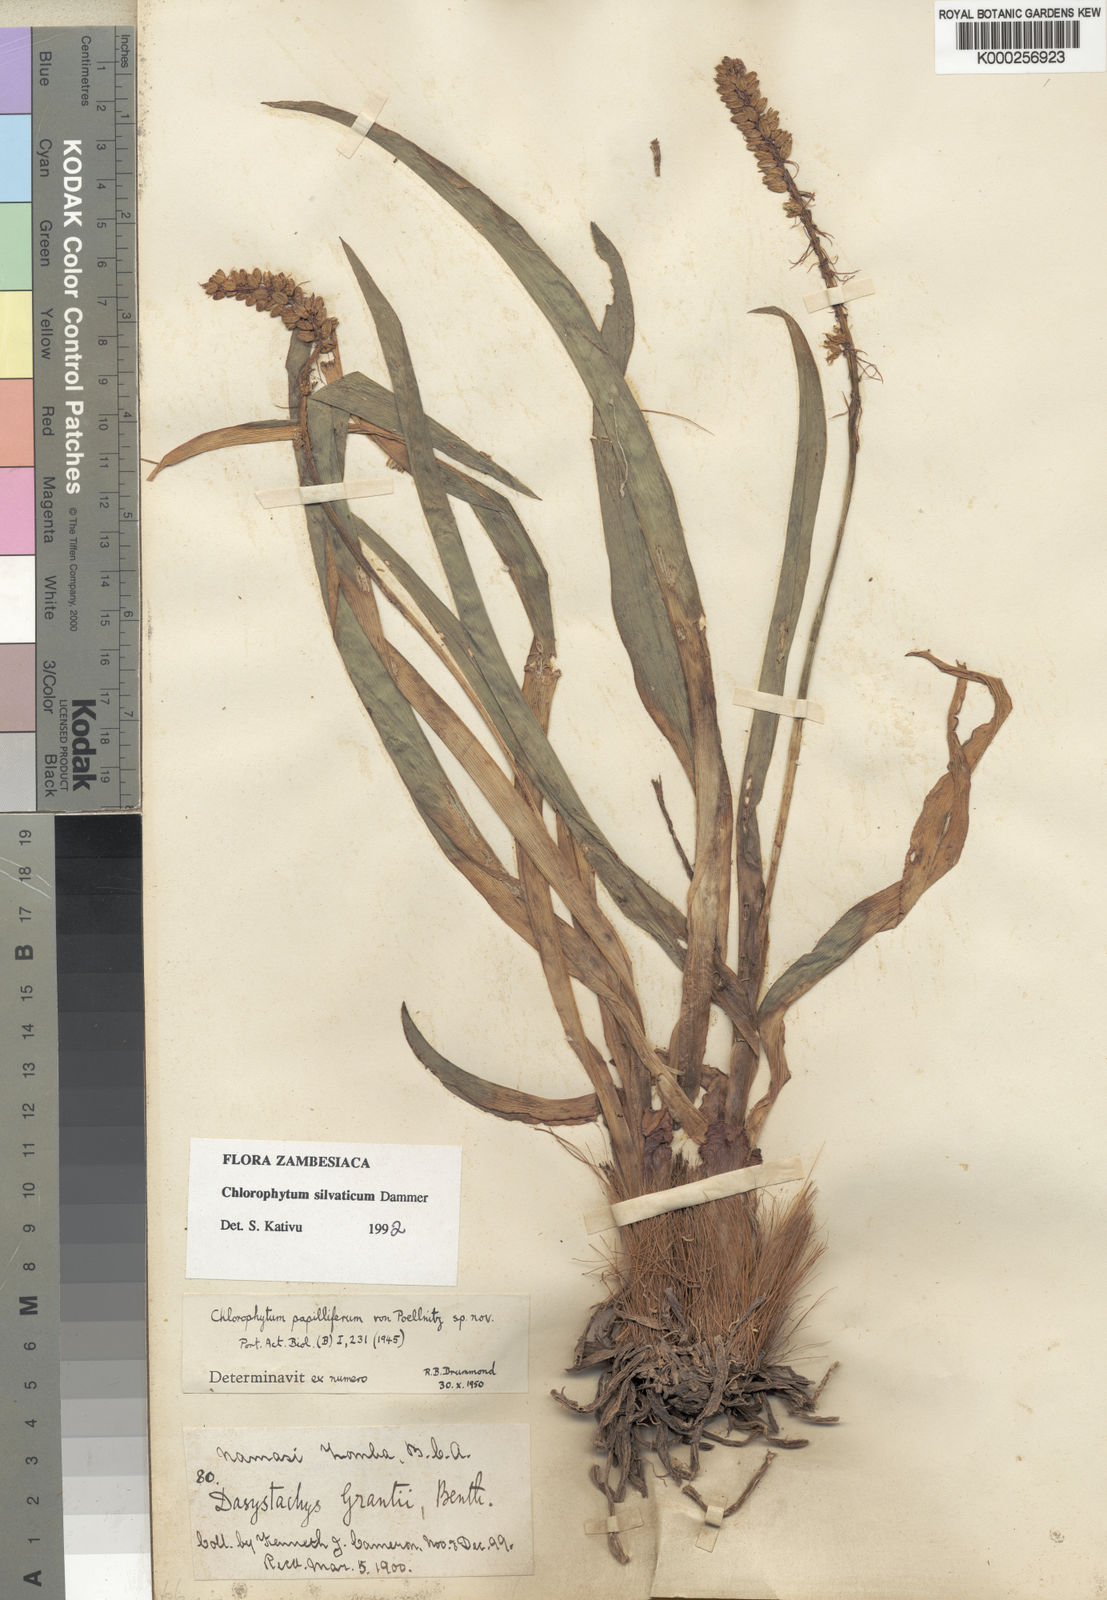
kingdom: Plantae
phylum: Tracheophyta
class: Liliopsida
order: Asparagales
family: Asparagaceae
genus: Chlorophytum
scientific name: Chlorophytum africanum
